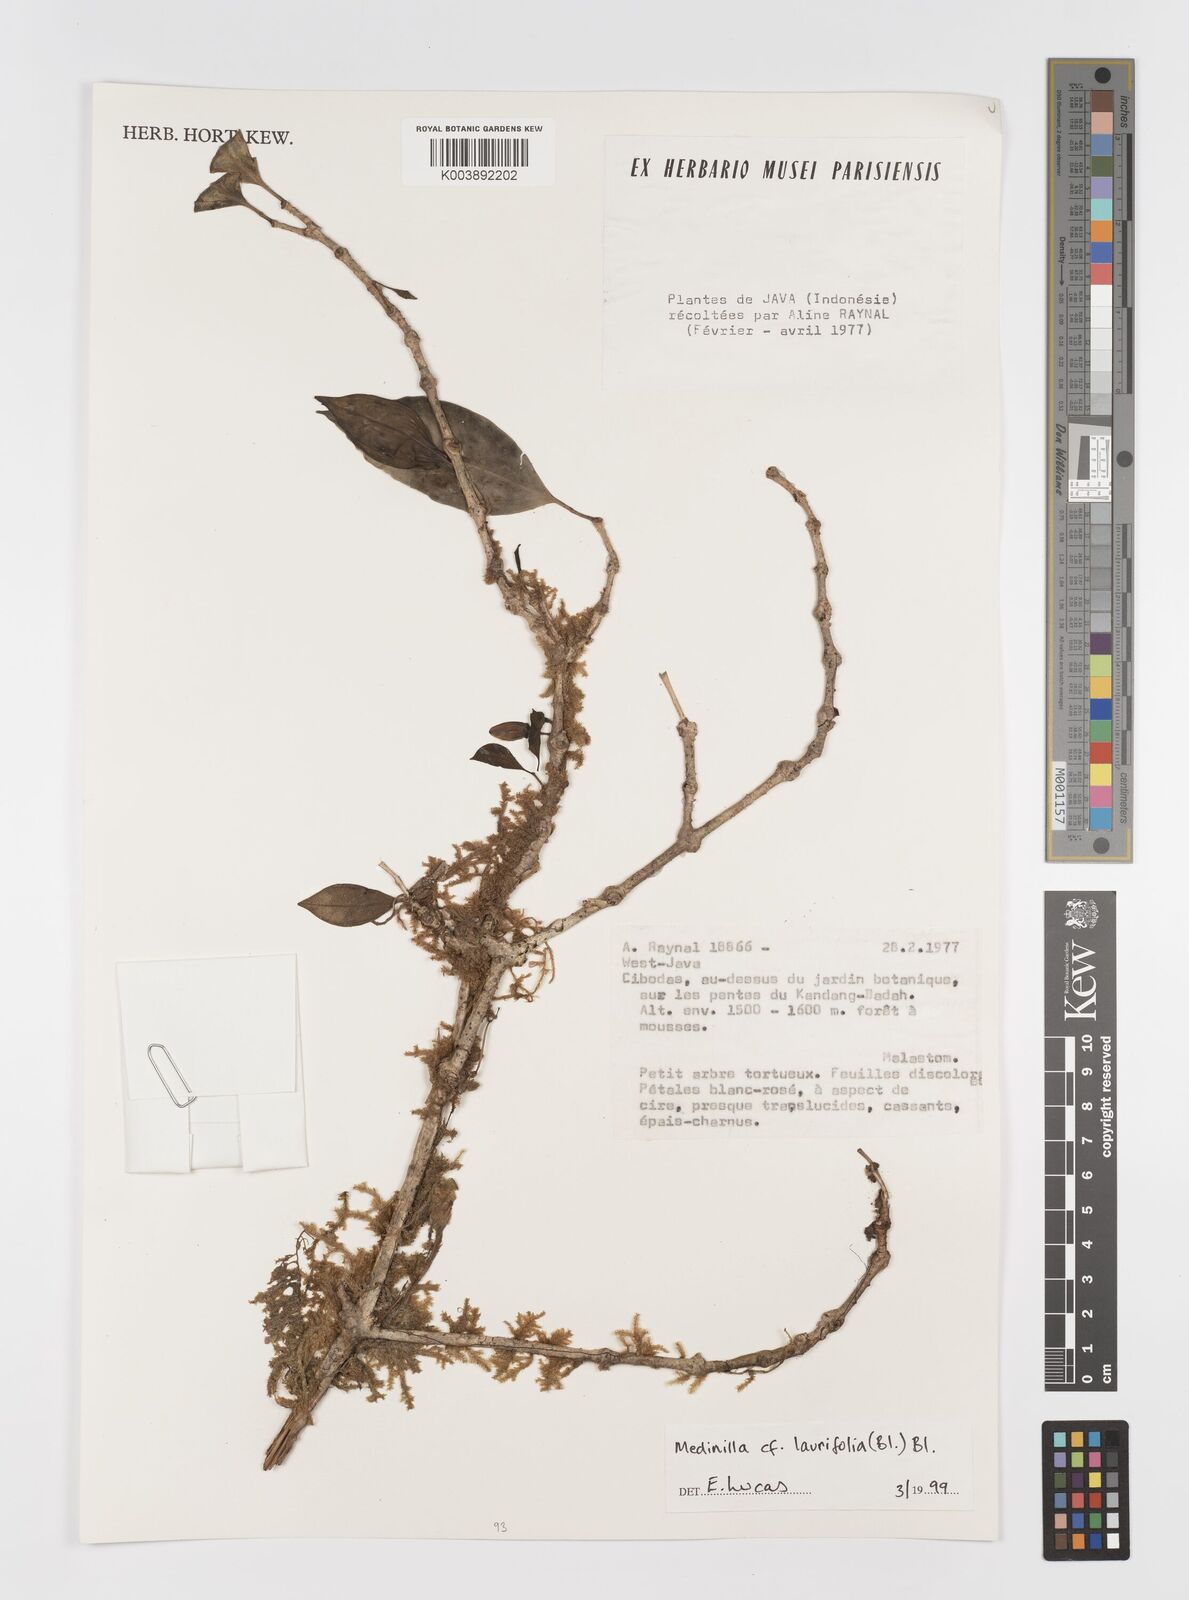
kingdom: Plantae
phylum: Tracheophyta
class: Magnoliopsida
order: Myrtales
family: Melastomataceae
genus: Medinilla
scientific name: Medinilla laurifolia
